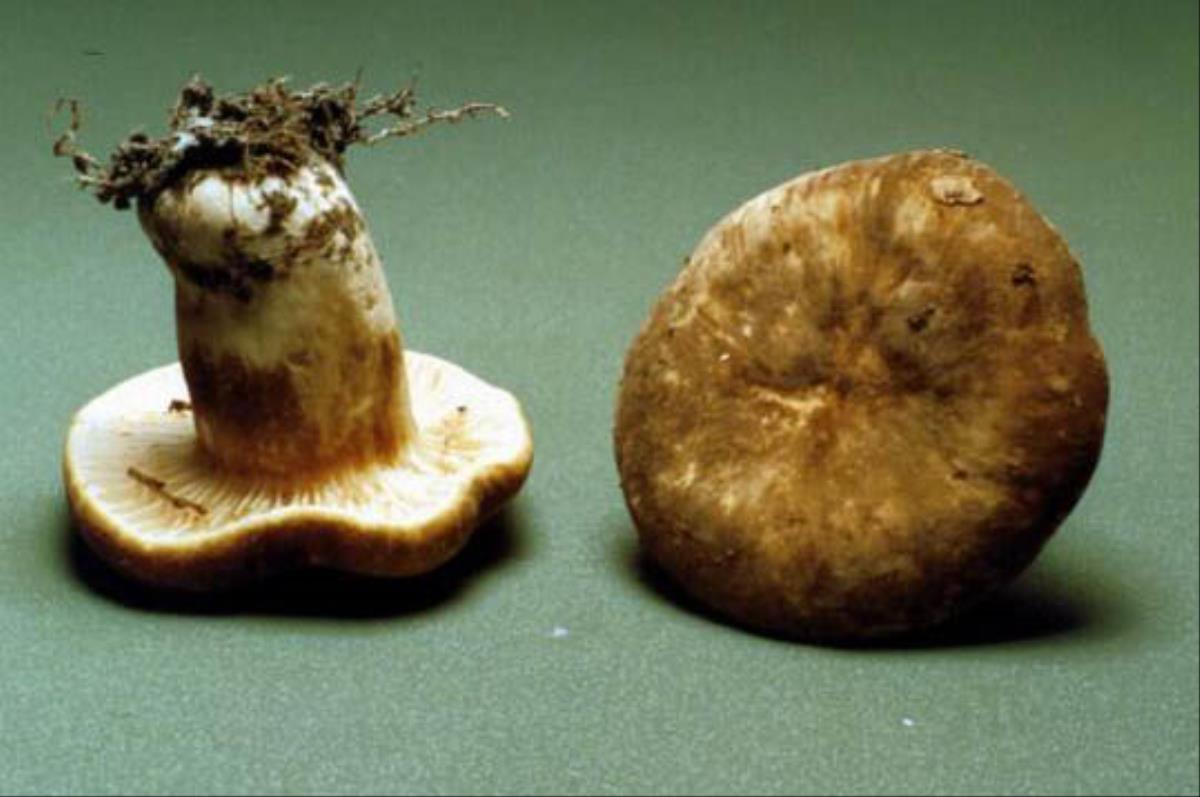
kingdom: Fungi
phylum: Basidiomycota
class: Agaricomycetes
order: Russulales
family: Russulaceae
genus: Lactifluus
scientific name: Lactifluus sepiaceus
